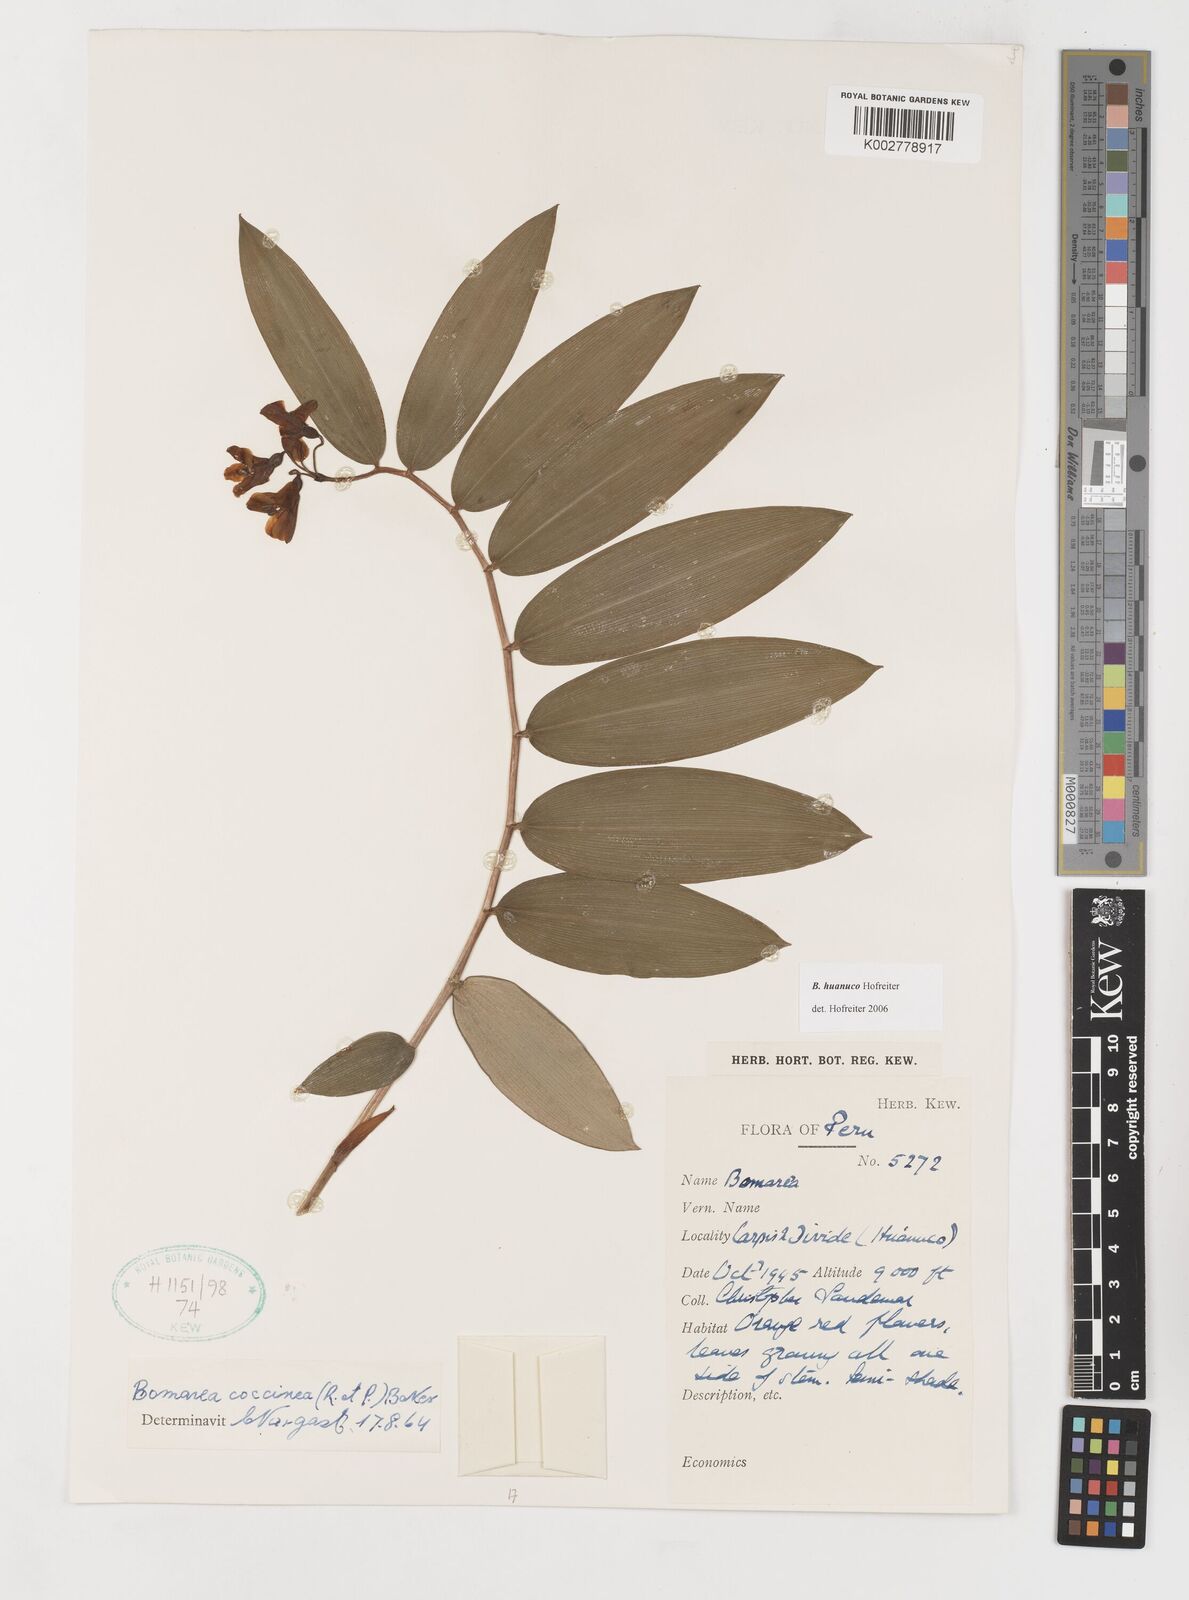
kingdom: Plantae
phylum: Tracheophyta
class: Liliopsida
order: Liliales
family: Alstroemeriaceae
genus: Bomarea
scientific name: Bomarea huanuco
